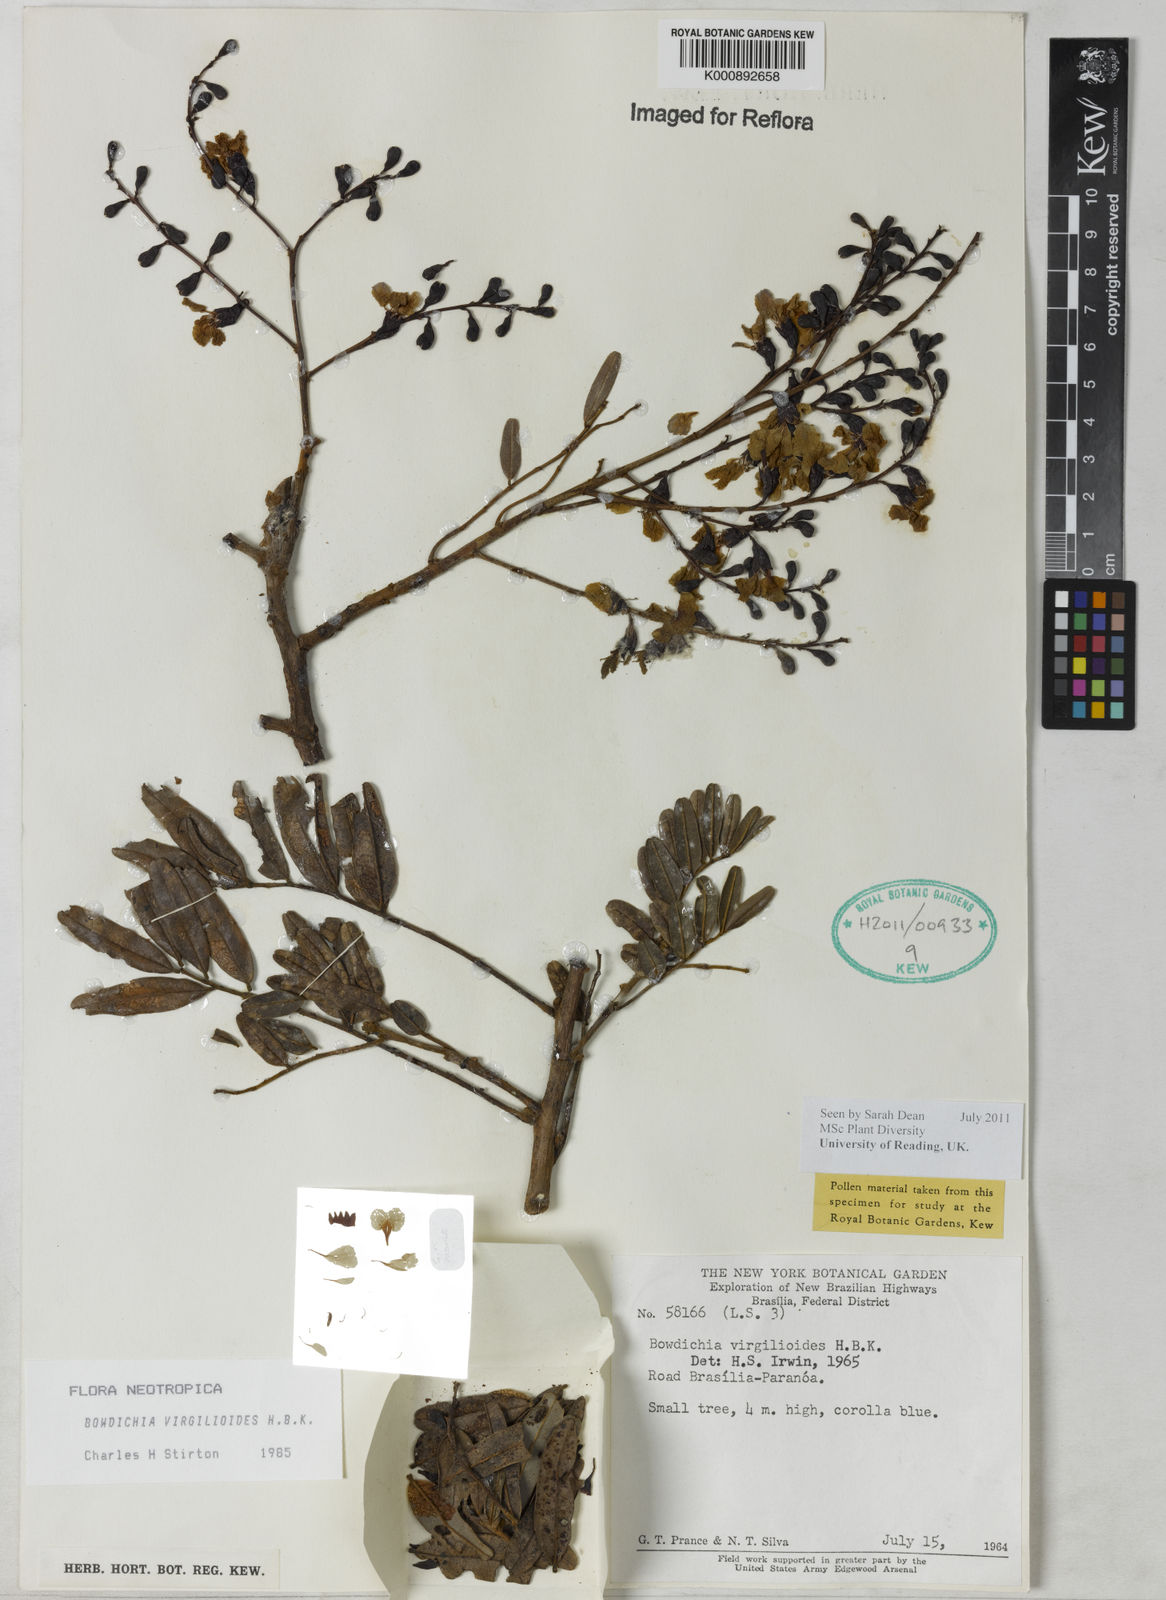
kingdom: Plantae
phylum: Tracheophyta
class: Magnoliopsida
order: Fabales
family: Fabaceae
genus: Bowdichia
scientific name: Bowdichia virgilioides
